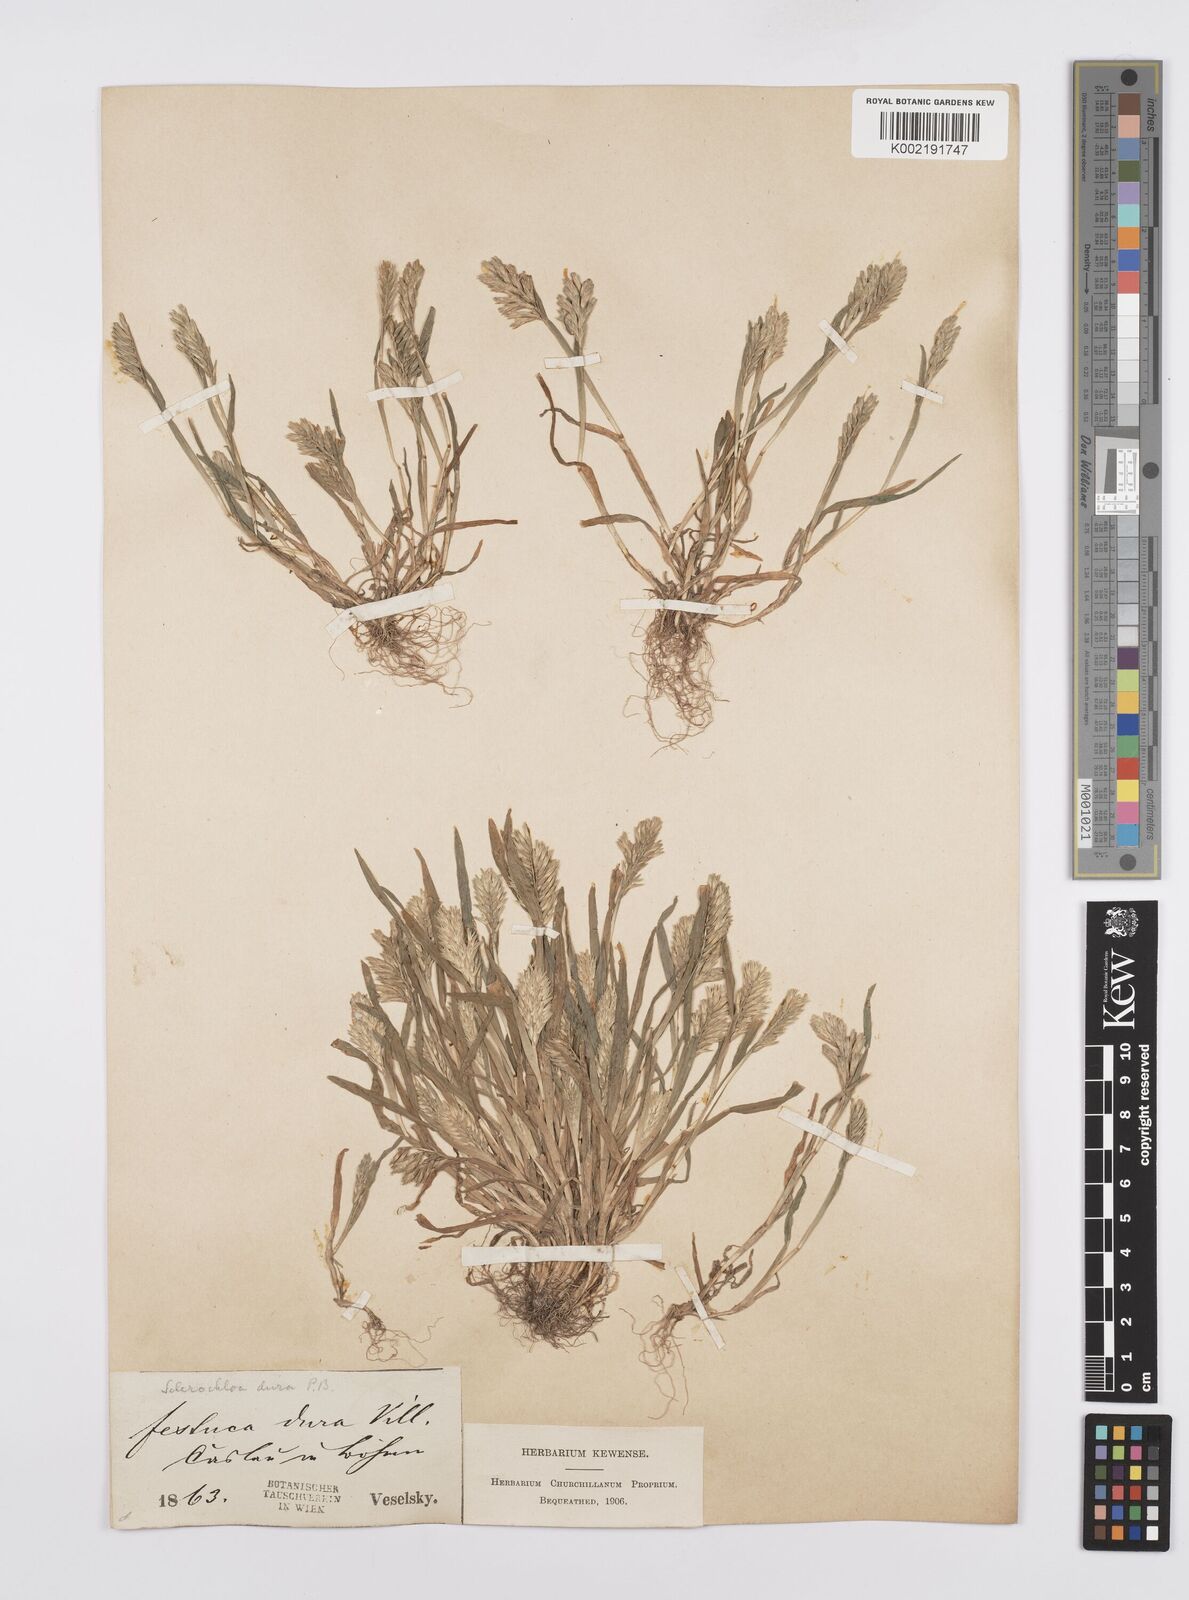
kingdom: Plantae
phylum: Tracheophyta
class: Liliopsida
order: Poales
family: Poaceae
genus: Sclerochloa
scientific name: Sclerochloa dura
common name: Common hardgrass
